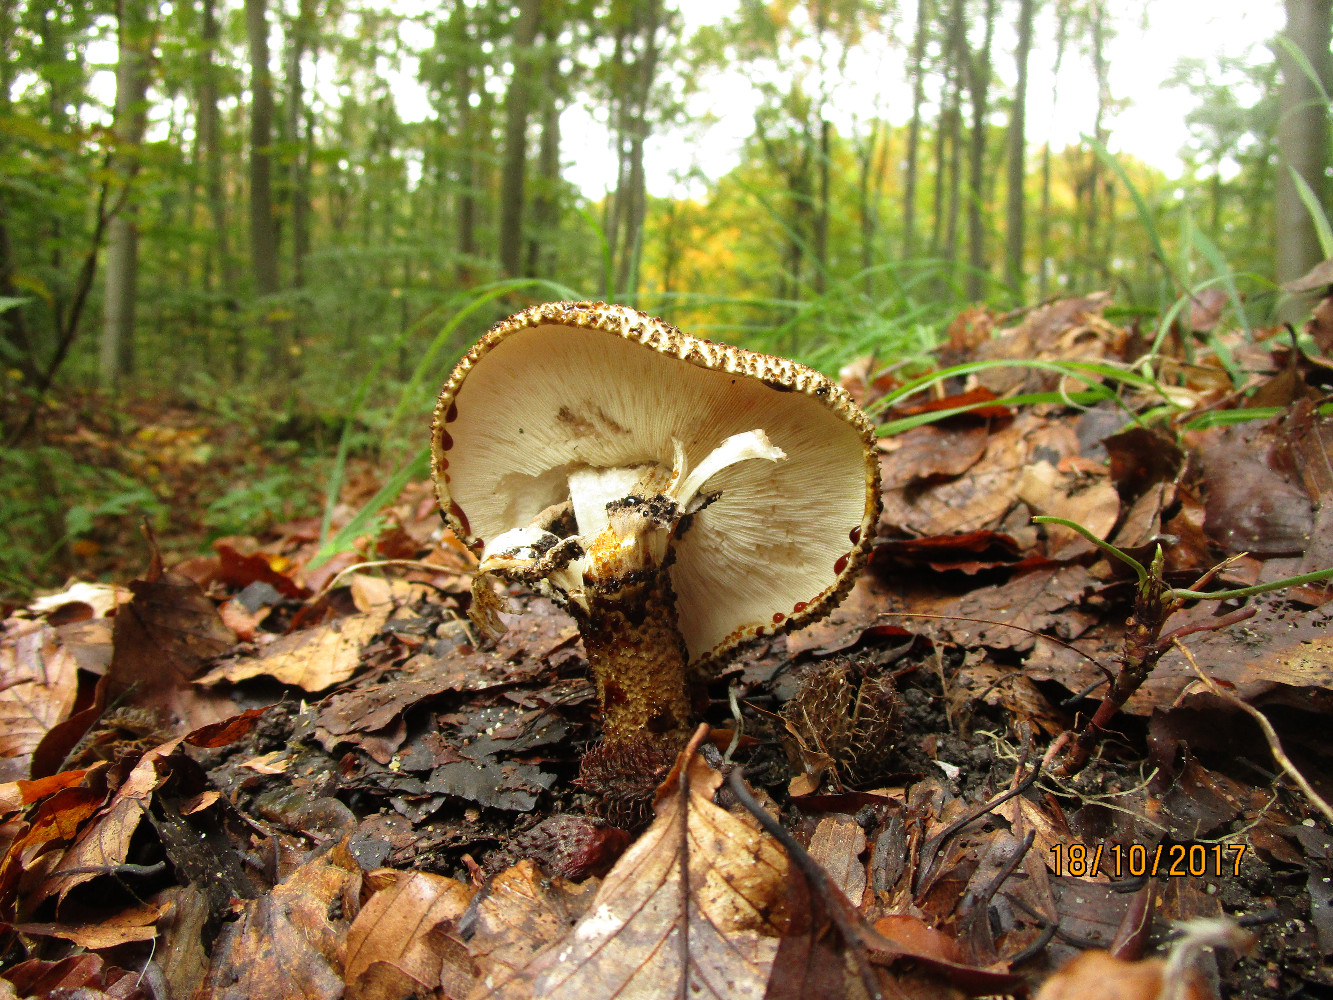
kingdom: Fungi
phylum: Basidiomycota
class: Agaricomycetes
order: Agaricales
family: Agaricaceae
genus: Echinoderma
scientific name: Echinoderma hystrix
